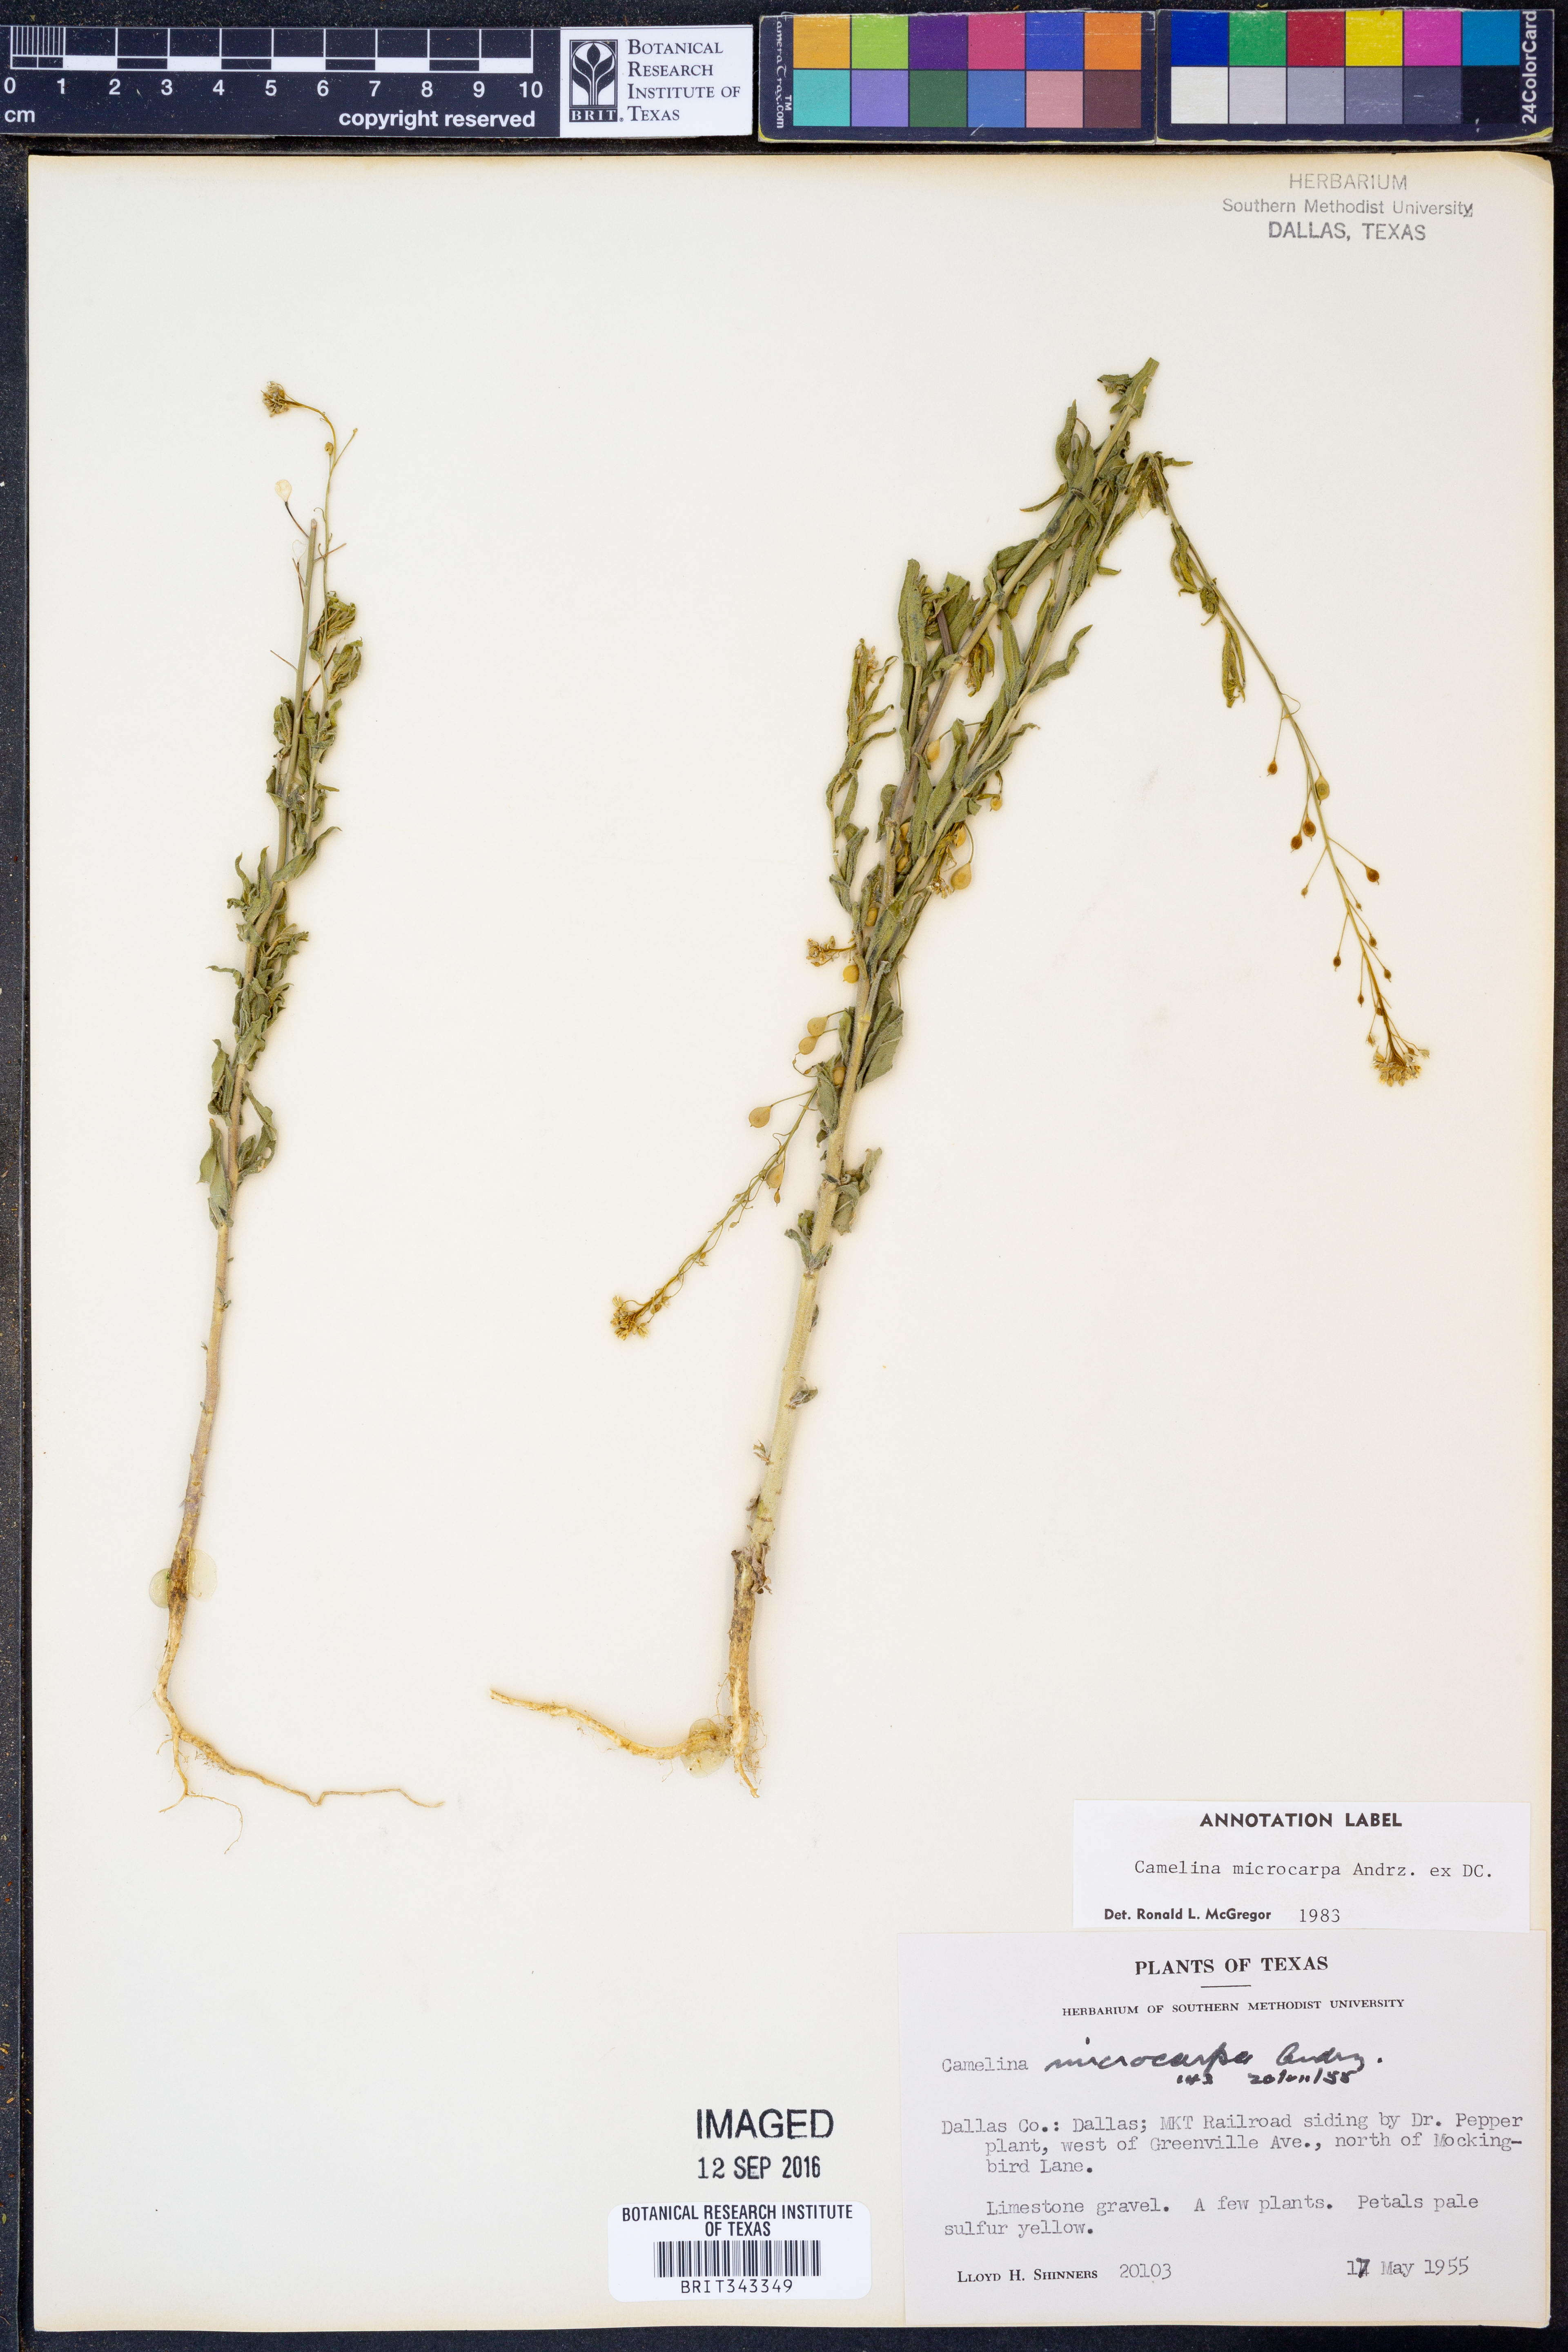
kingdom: Plantae
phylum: Tracheophyta
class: Magnoliopsida
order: Brassicales
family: Brassicaceae
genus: Camelina
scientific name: Camelina microcarpa
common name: Lesser gold-of-pleasure
